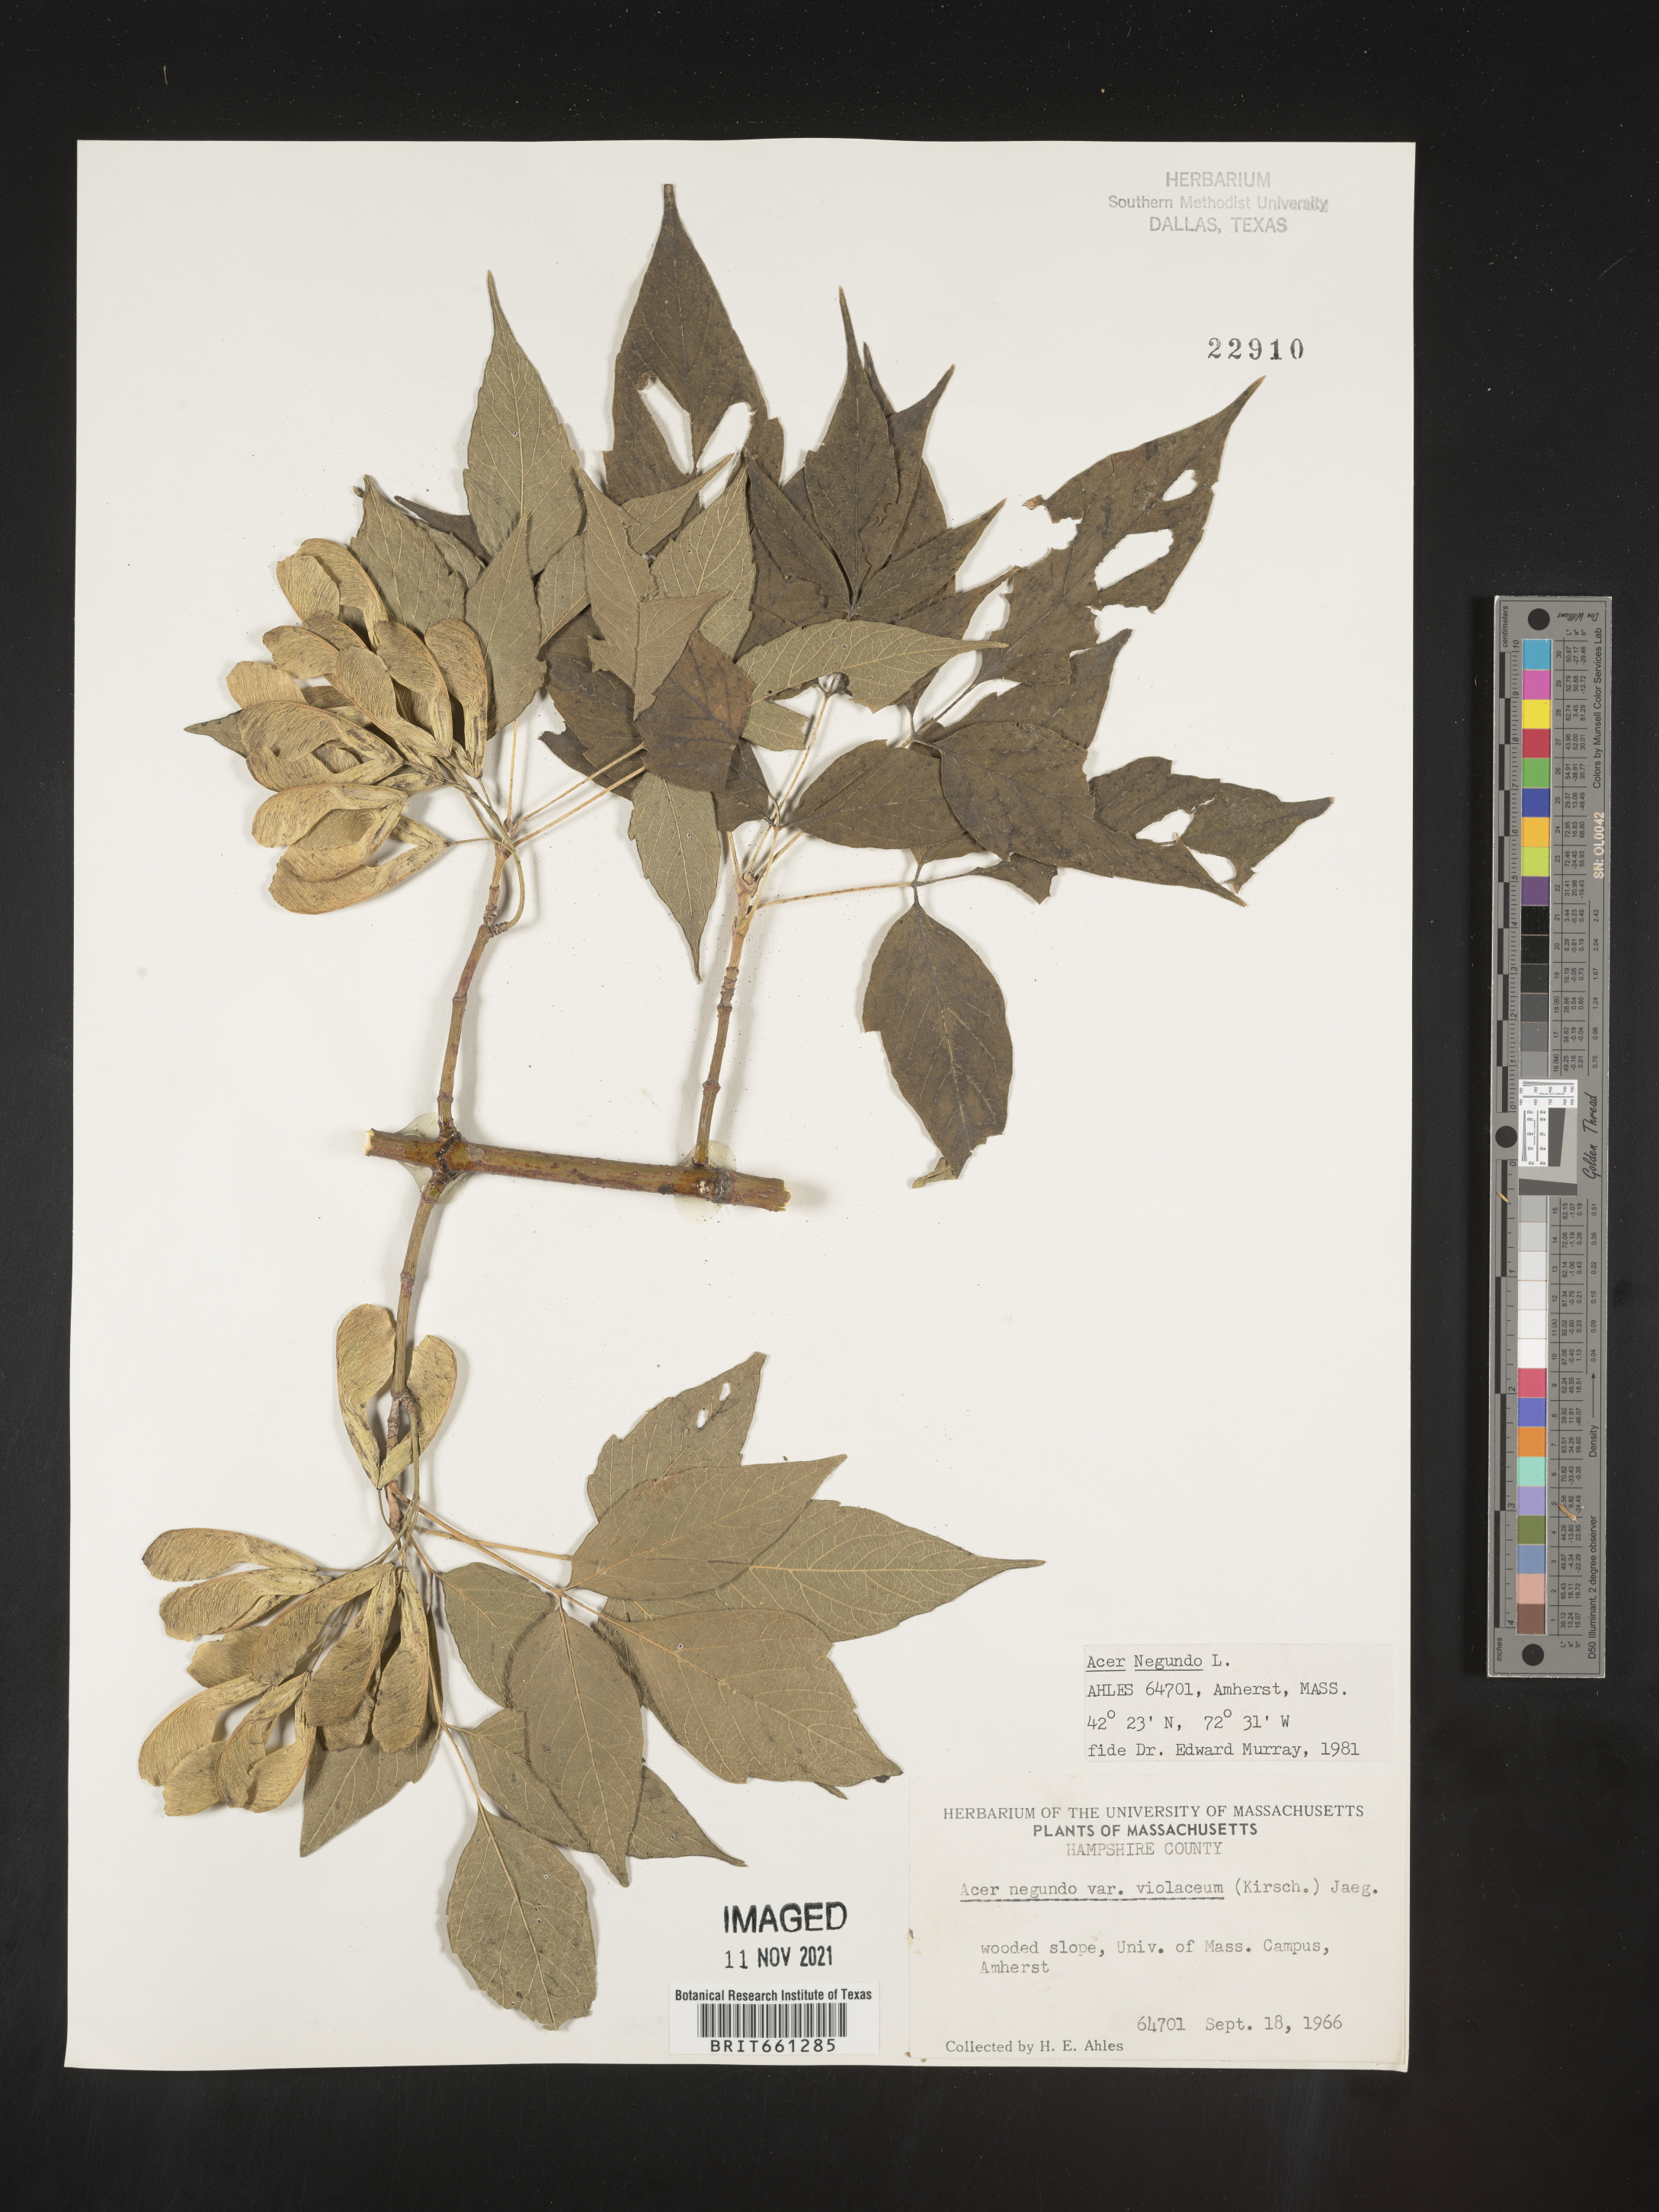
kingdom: Plantae
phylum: Tracheophyta
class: Magnoliopsida
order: Sapindales
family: Sapindaceae
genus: Acer
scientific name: Acer negundo
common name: Ashleaf maple
